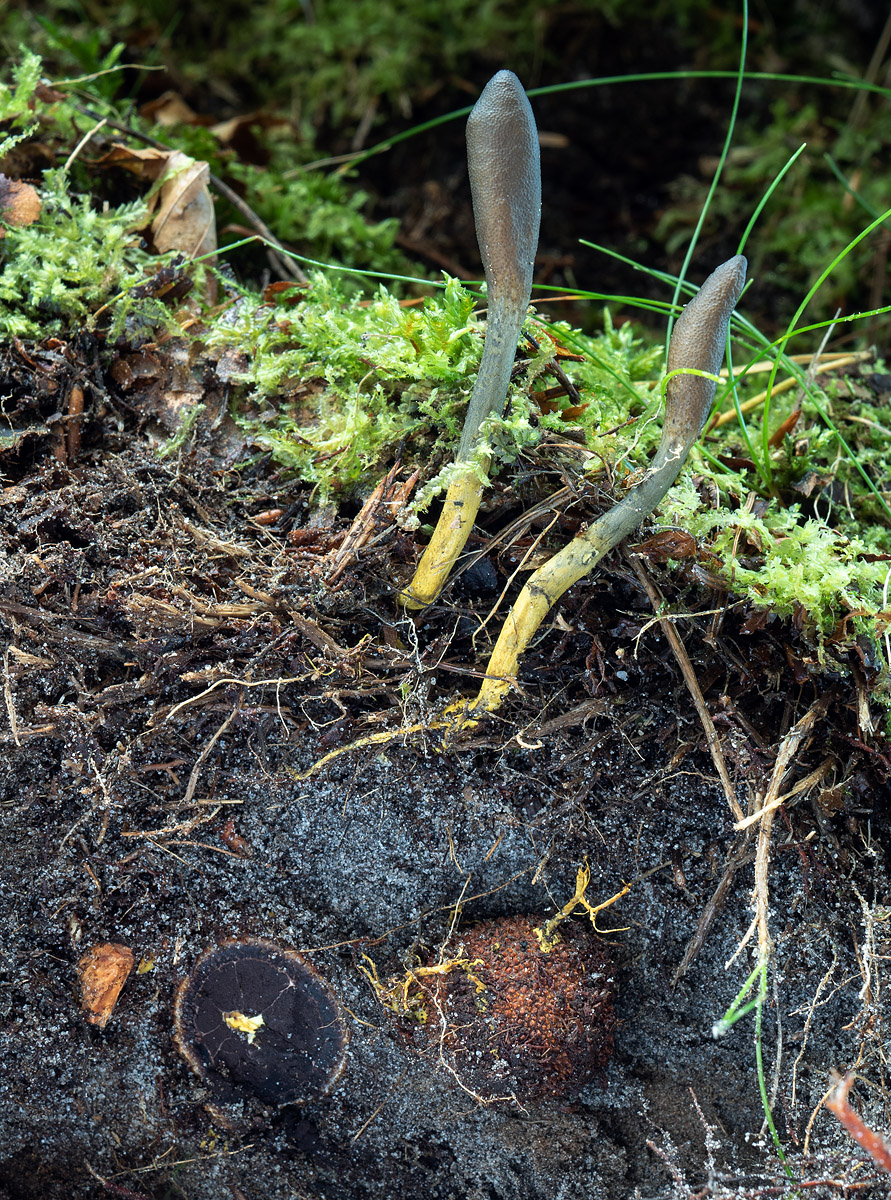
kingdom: Fungi
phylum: Ascomycota
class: Eurotiomycetes
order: Eurotiales
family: Elaphomycetaceae
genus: Elaphomyces
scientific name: Elaphomyces muricatus
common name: vortet hjortetrøffel
